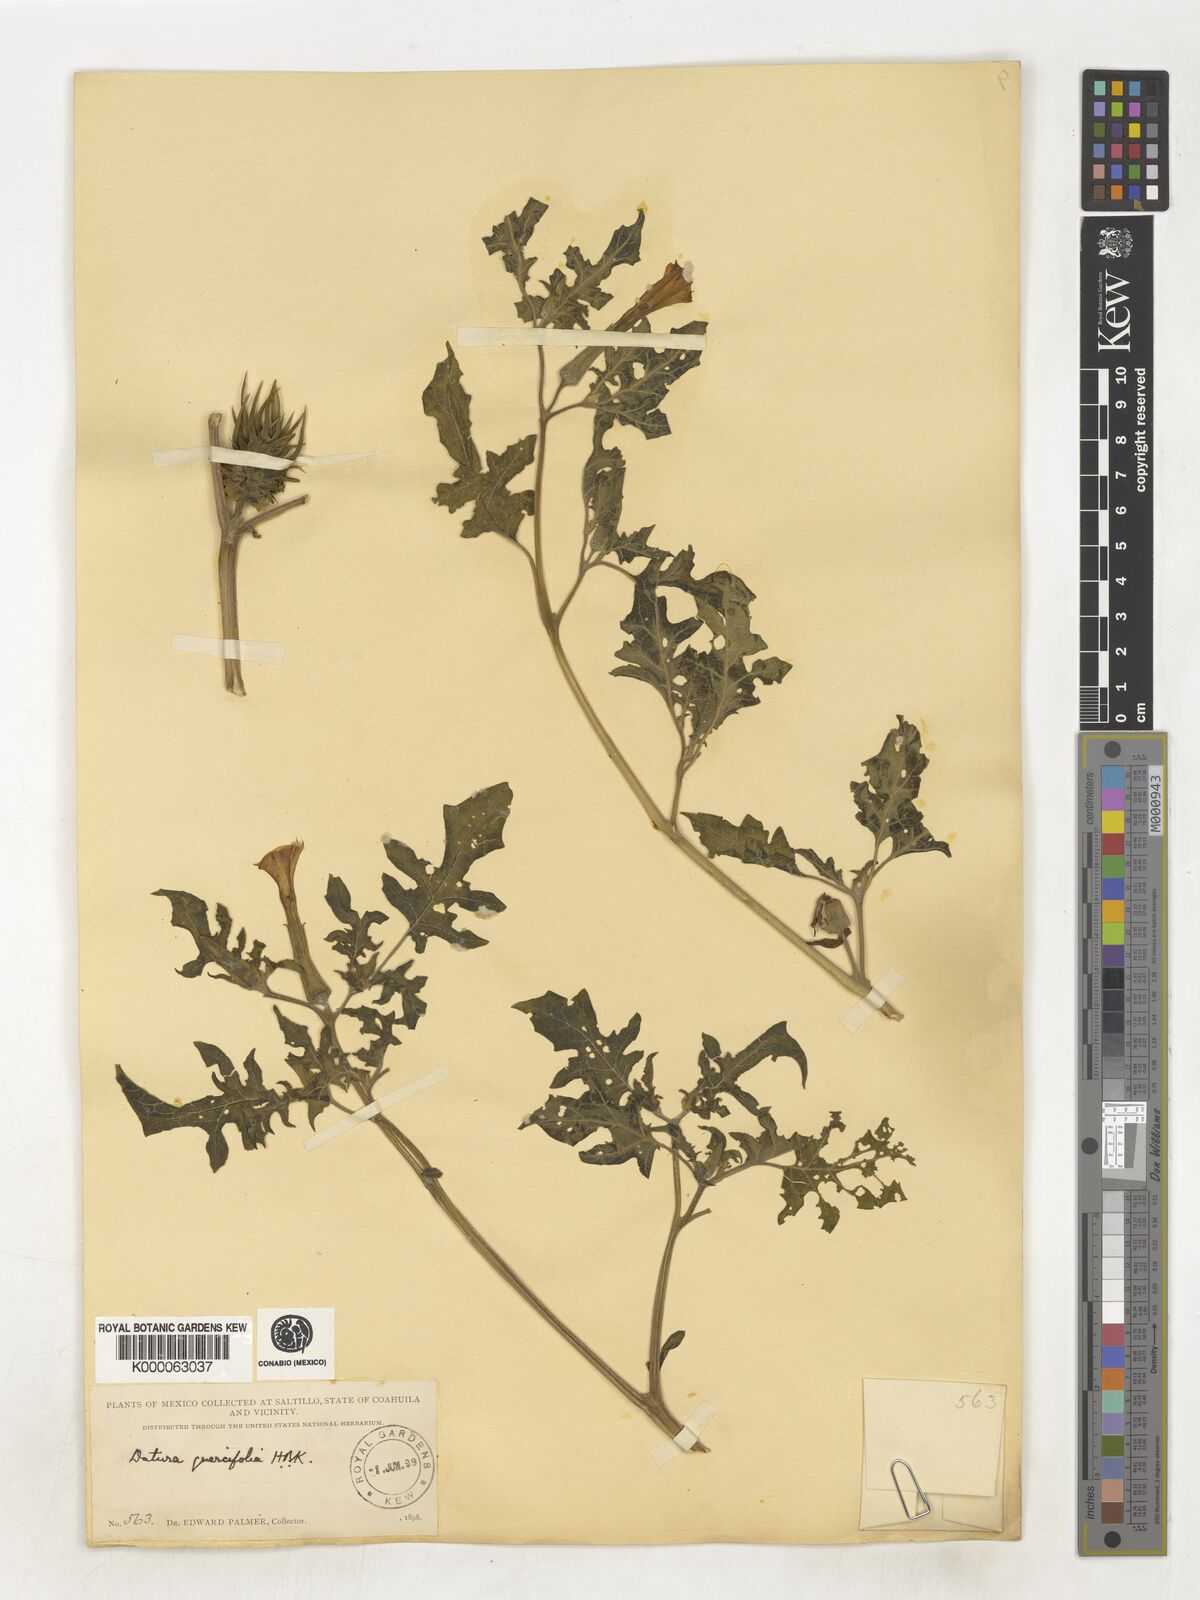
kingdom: Plantae
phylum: Tracheophyta
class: Magnoliopsida
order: Solanales
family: Solanaceae
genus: Datura
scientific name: Datura quercifolia
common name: Oak-leaf datura
